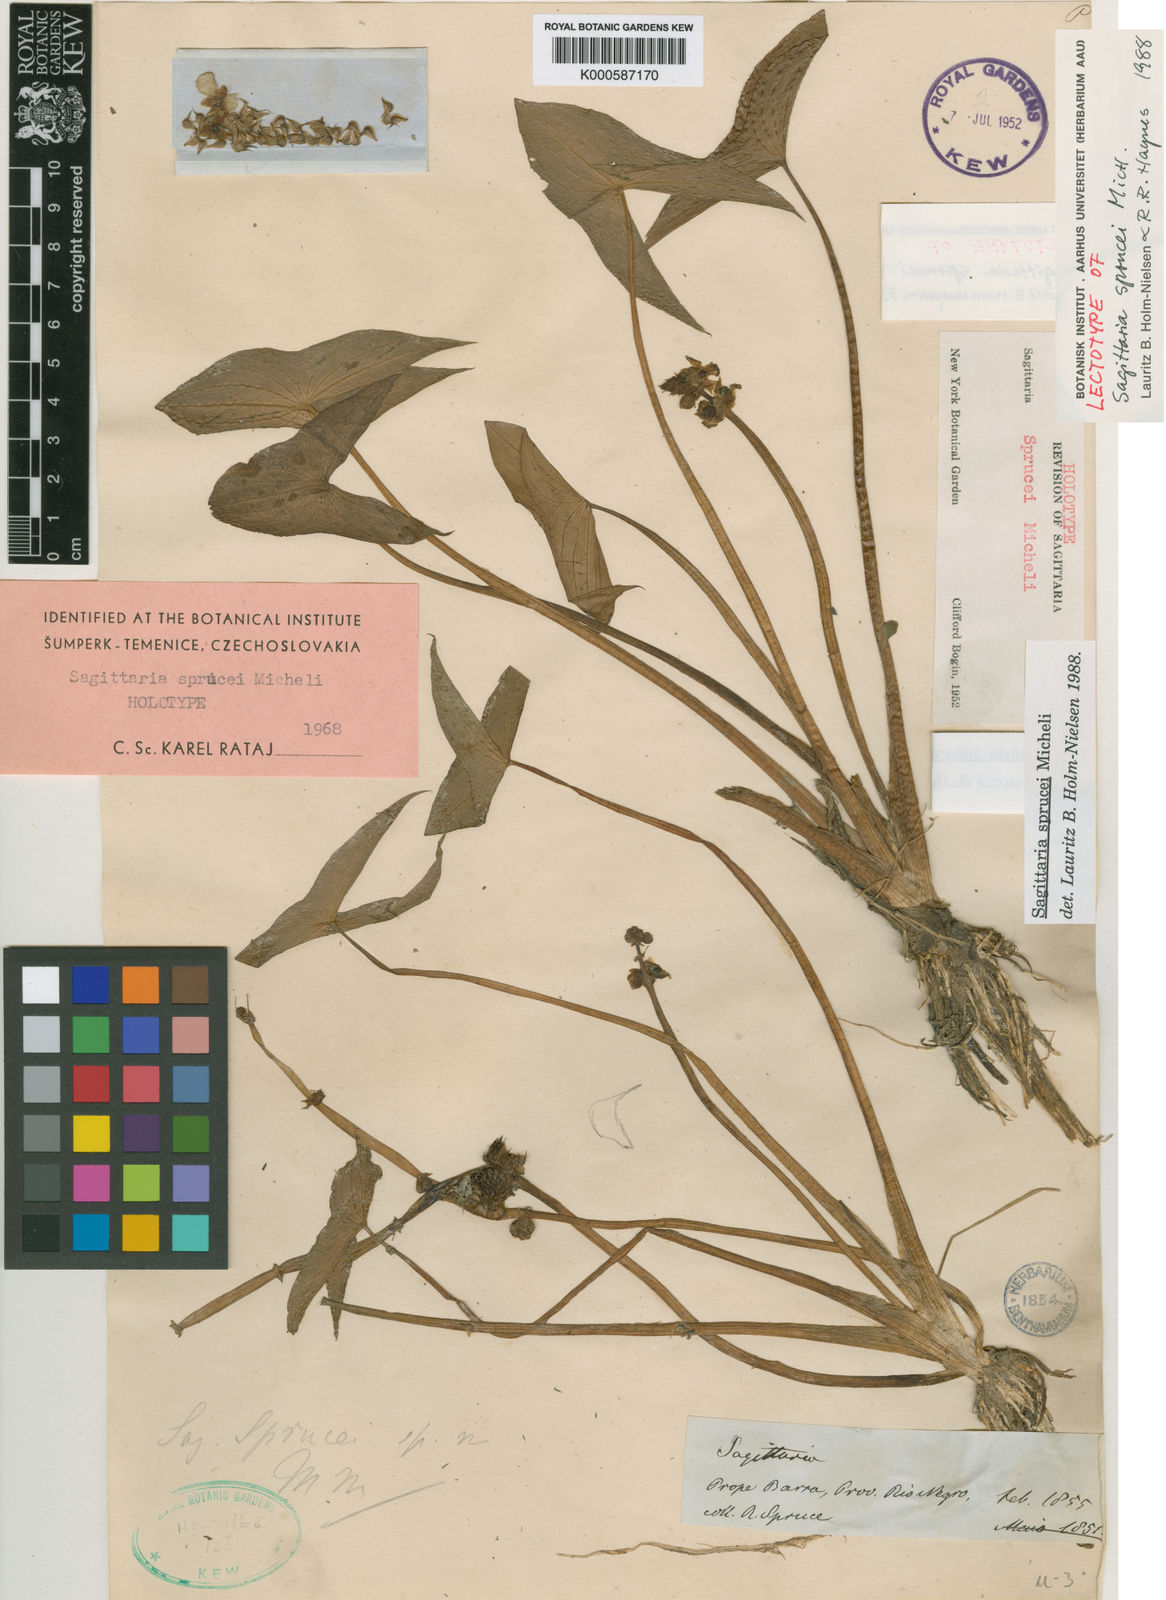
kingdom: Plantae
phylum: Tracheophyta
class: Liliopsida
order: Alismatales
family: Alismataceae
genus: Sagittaria
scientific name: Sagittaria sprucei
